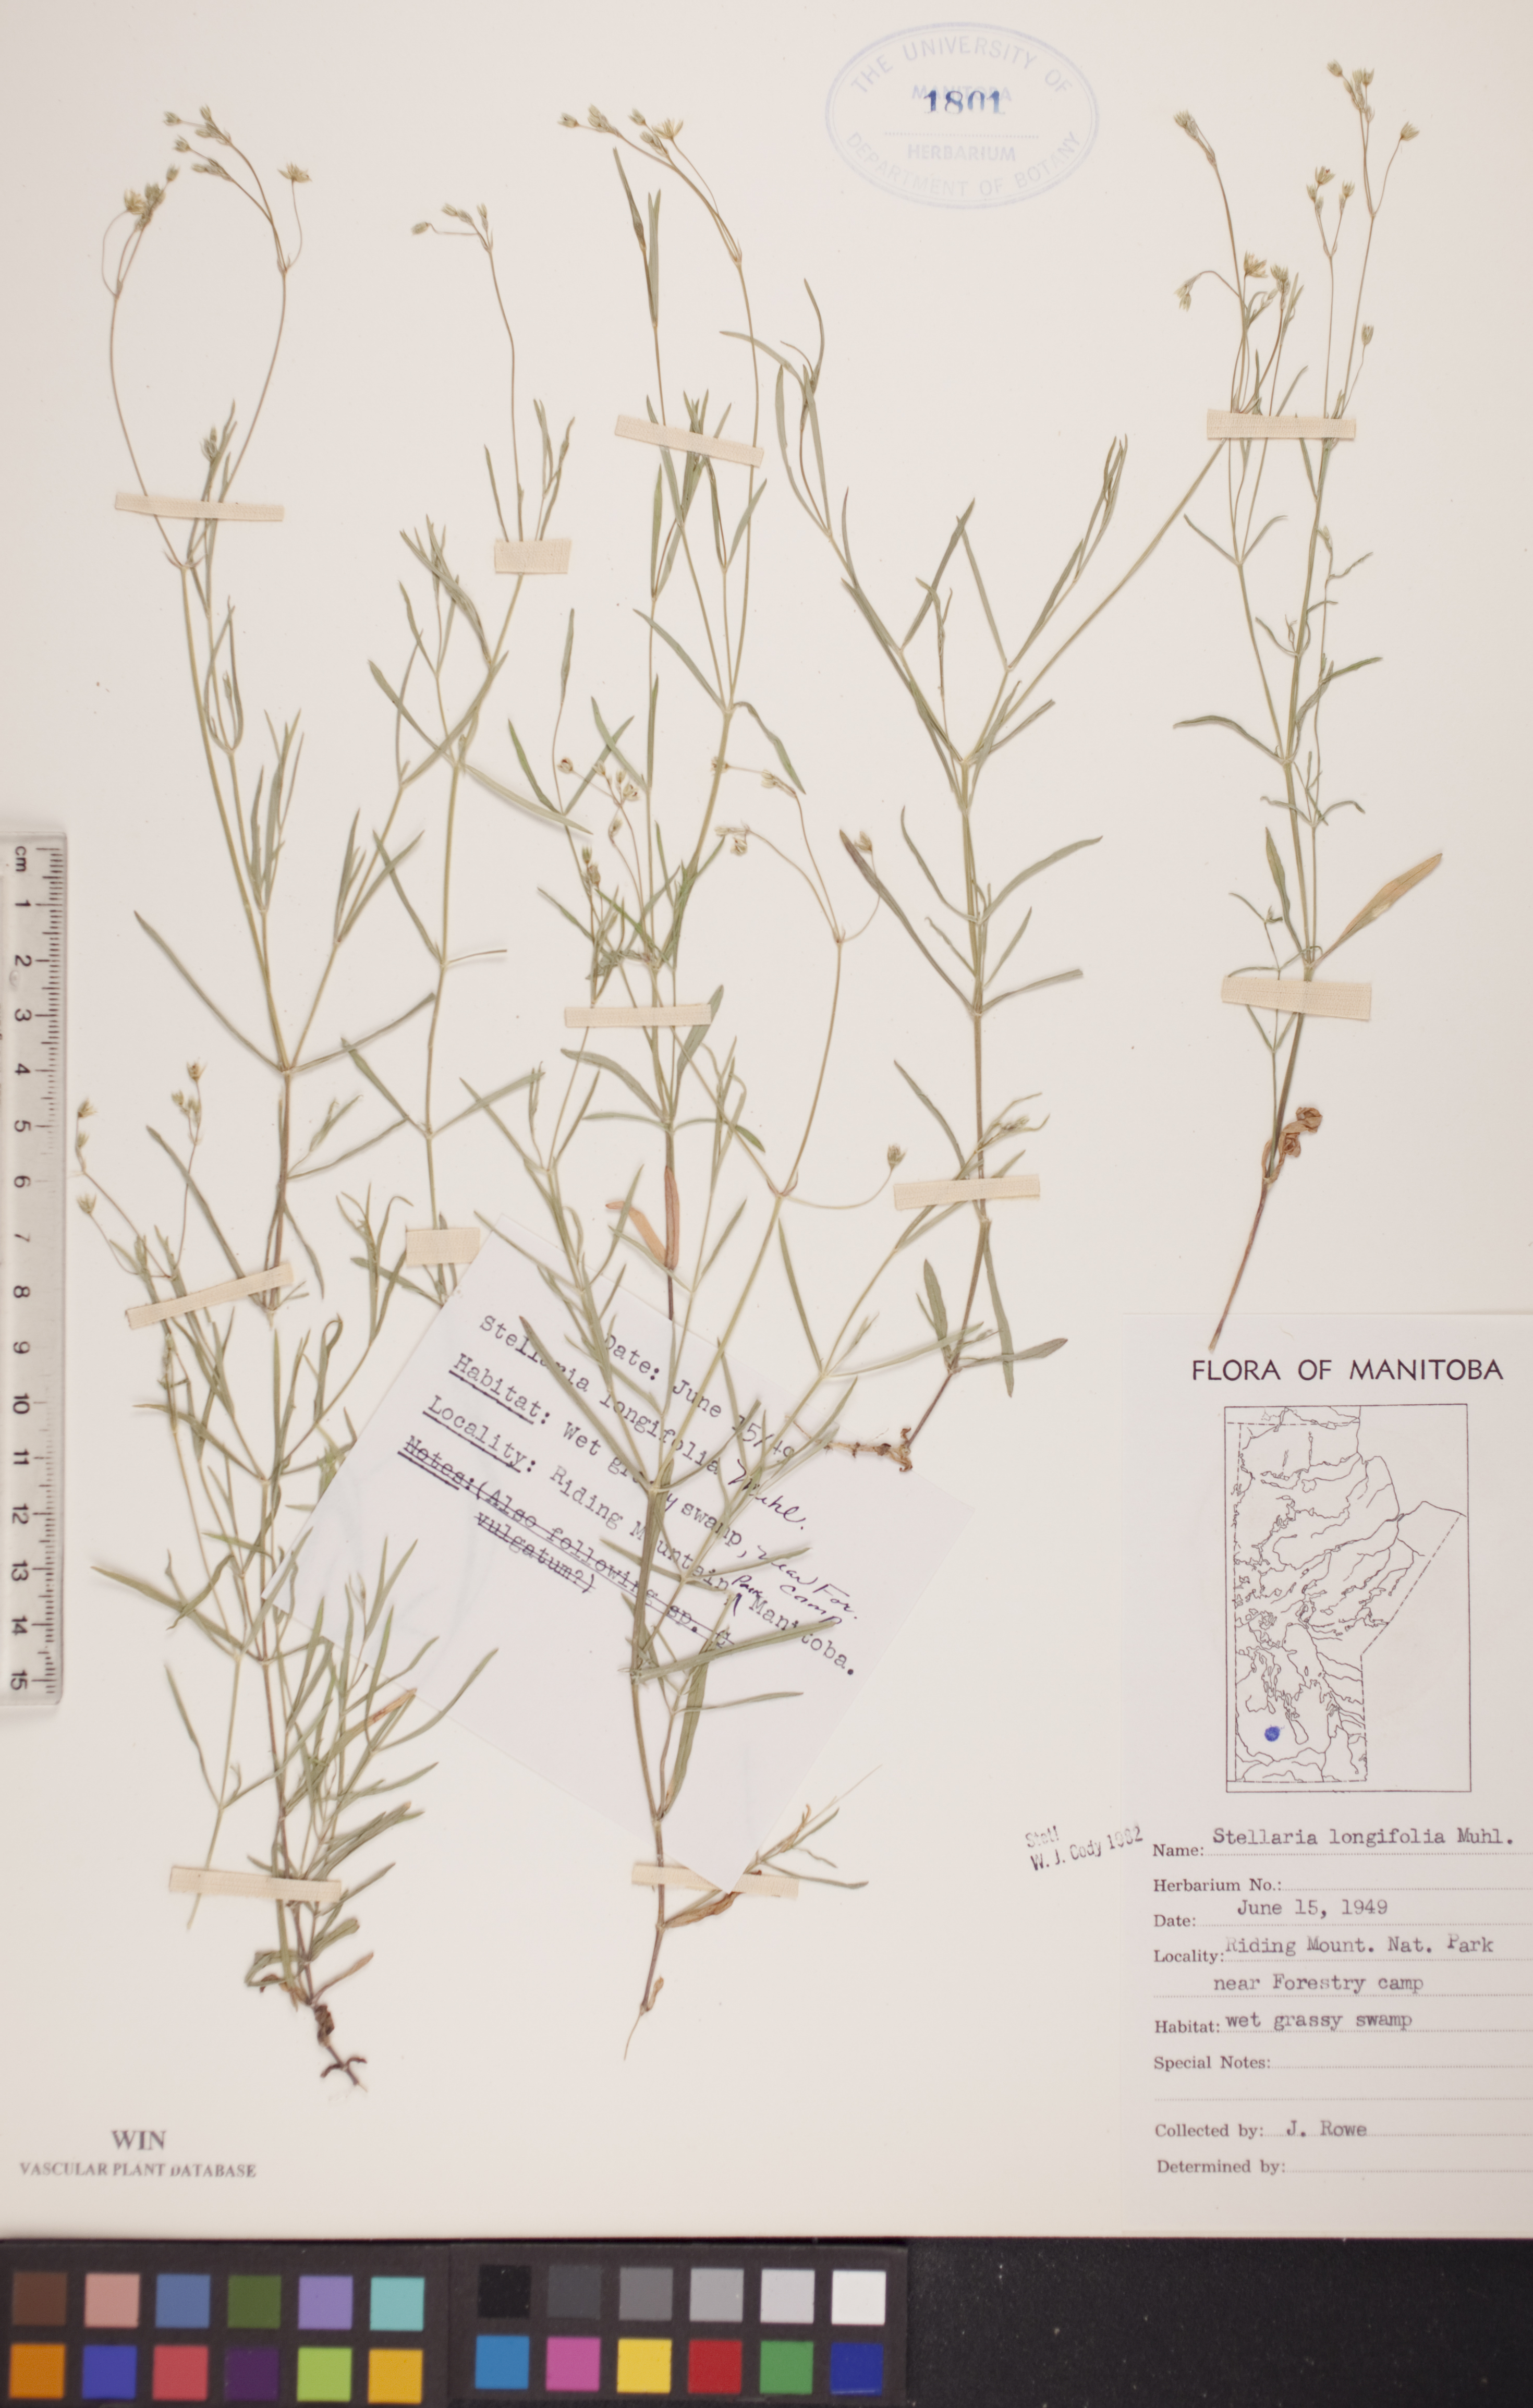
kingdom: Plantae
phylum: Tracheophyta
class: Magnoliopsida
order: Caryophyllales
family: Caryophyllaceae
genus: Stellaria
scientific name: Stellaria longifolia
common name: Long-leaved chickweed
